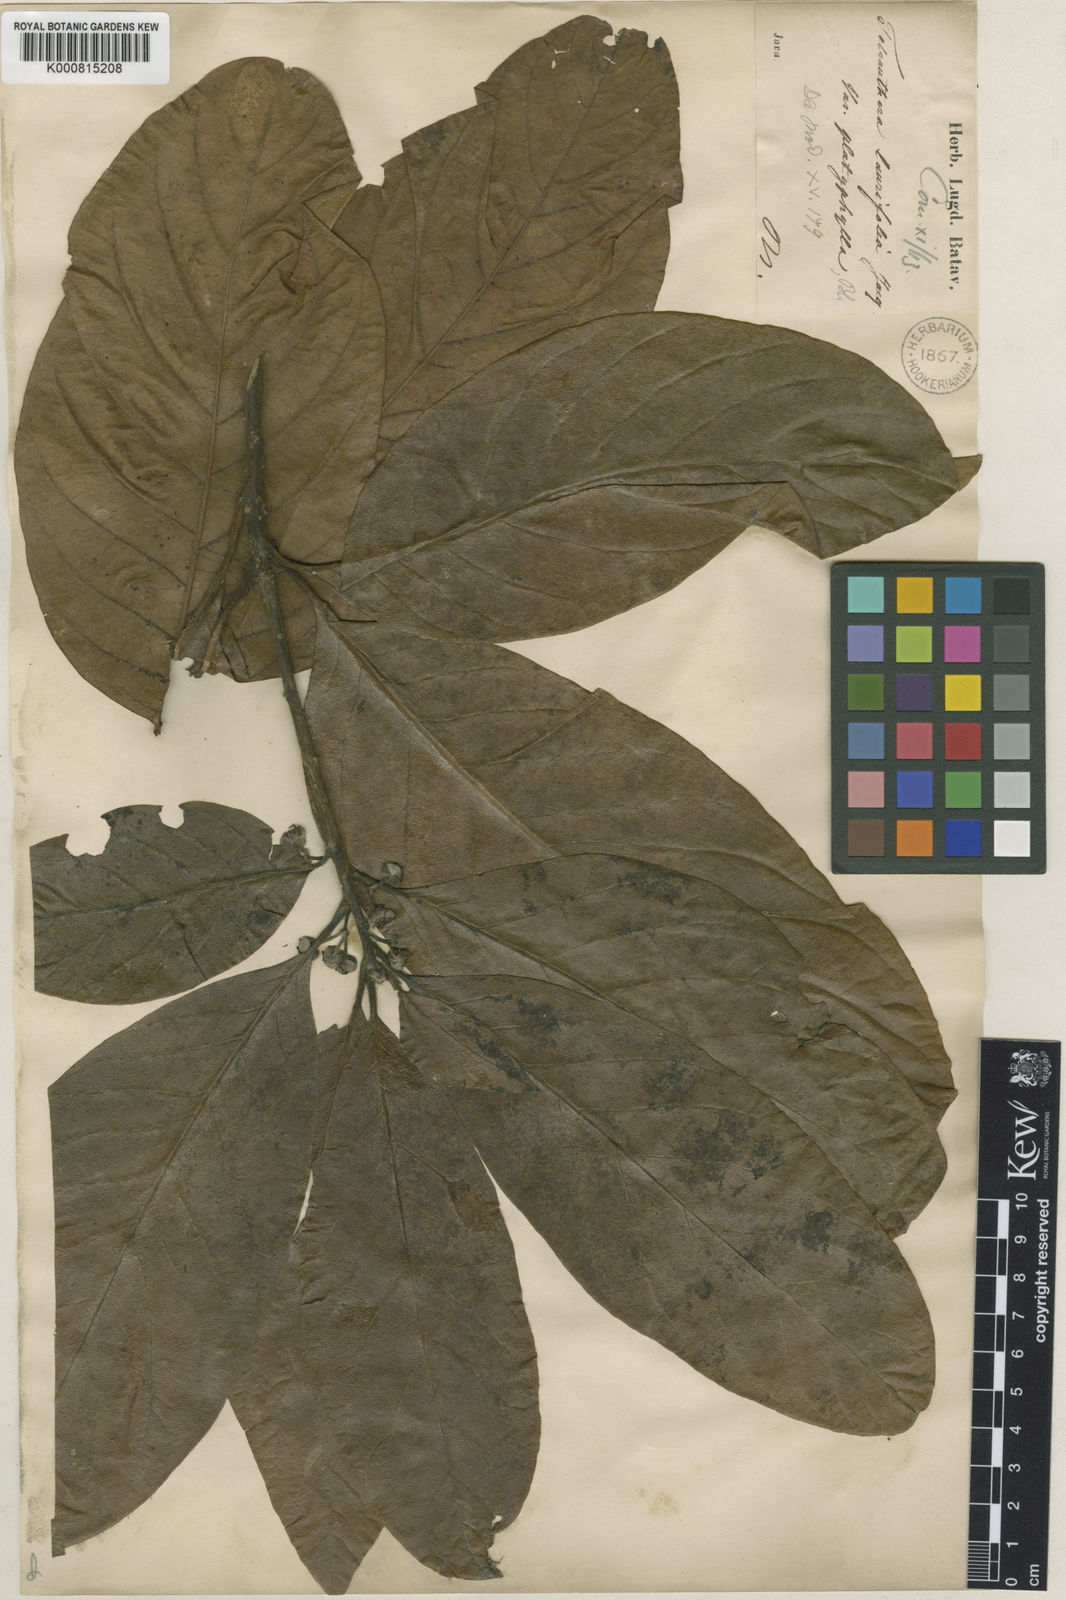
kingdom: Plantae
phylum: Tracheophyta
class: Magnoliopsida
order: Laurales
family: Lauraceae
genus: Litsea
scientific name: Litsea glutinosa
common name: Indian-laurel
